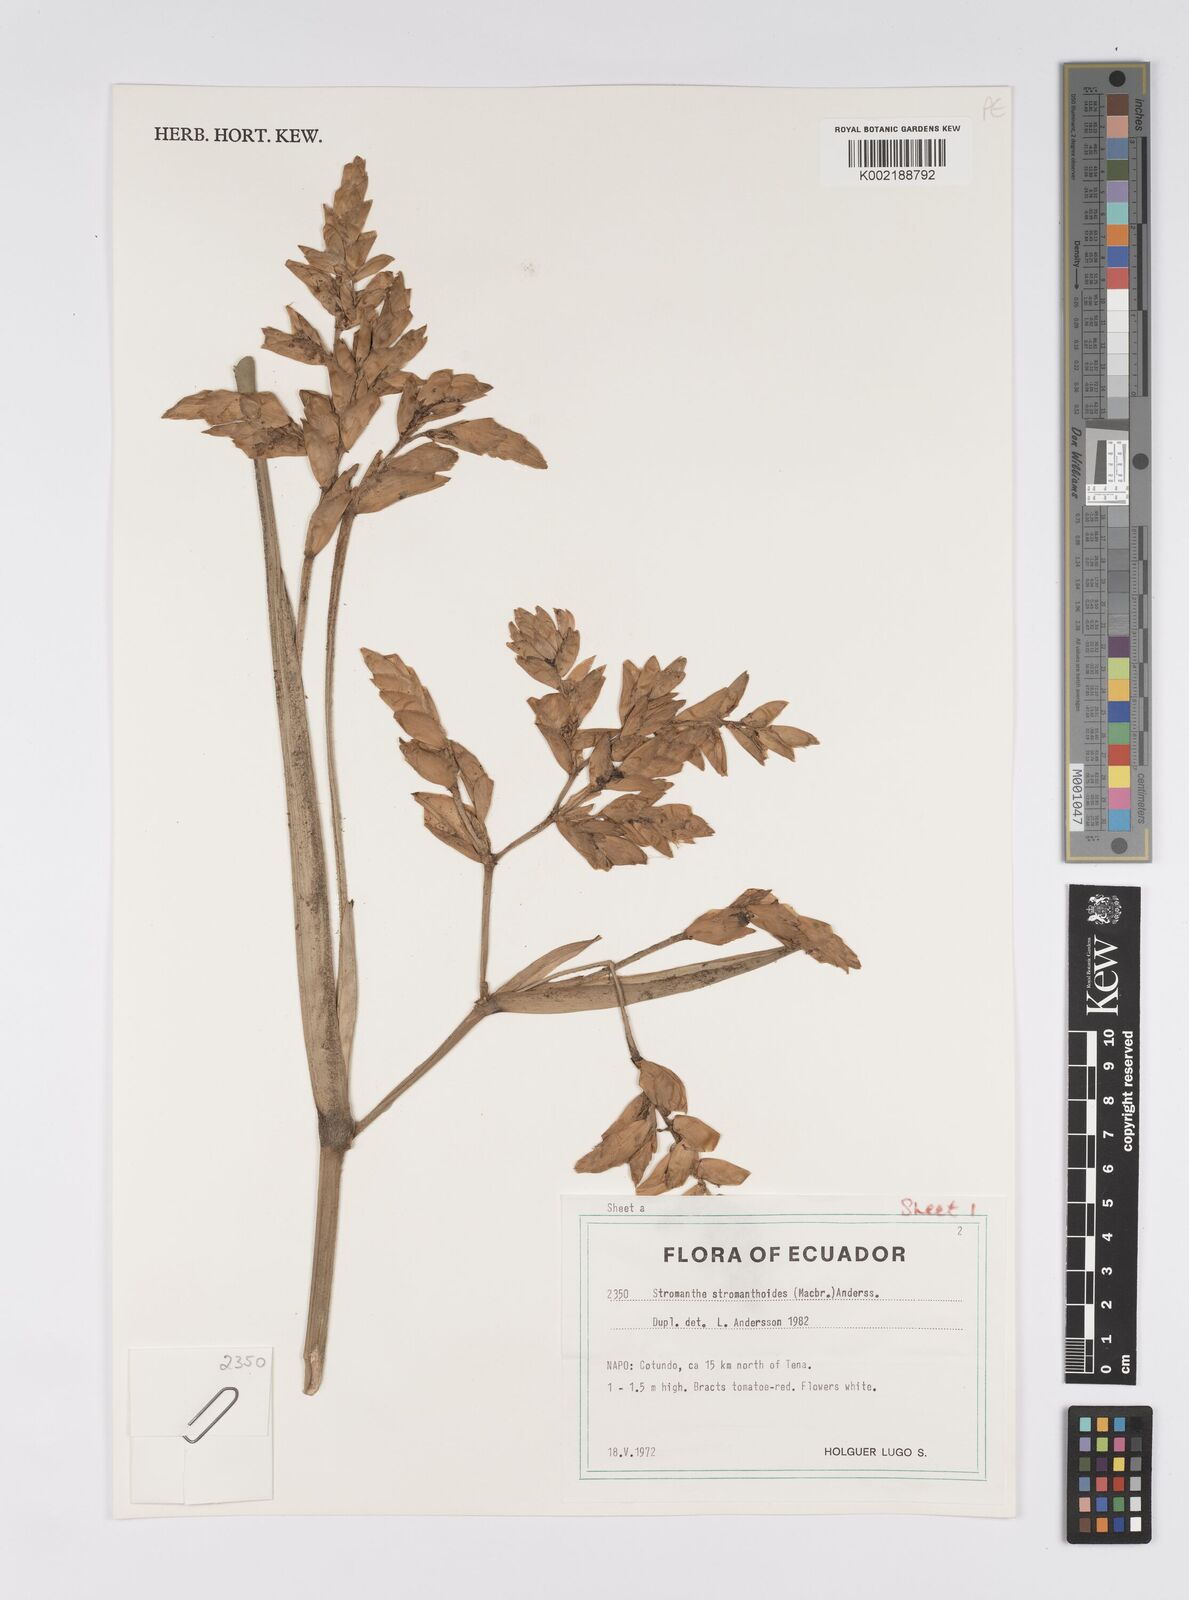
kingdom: Plantae
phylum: Tracheophyta
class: Liliopsida
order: Zingiberales
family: Marantaceae
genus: Stromanthe
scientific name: Stromanthe stromanthoides
